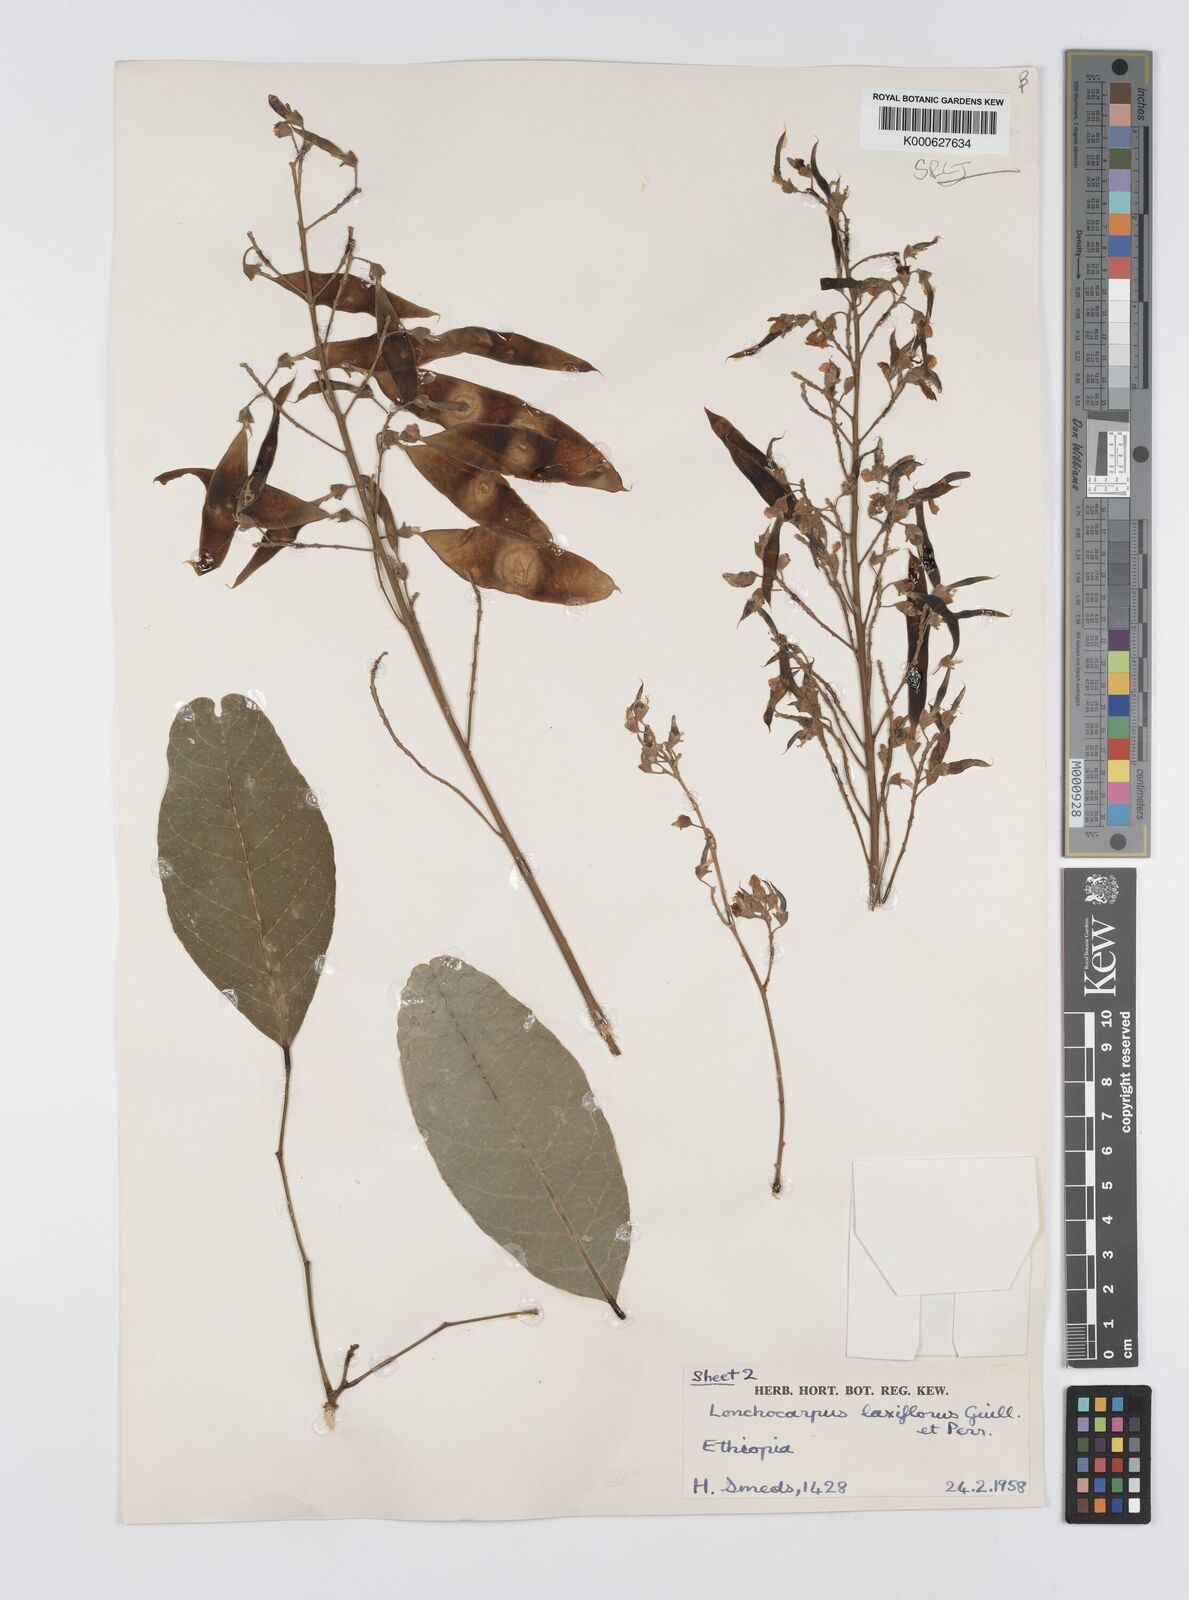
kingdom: Plantae
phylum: Tracheophyta
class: Magnoliopsida
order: Fabales
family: Fabaceae
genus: Philenoptera
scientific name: Philenoptera laxiflora
